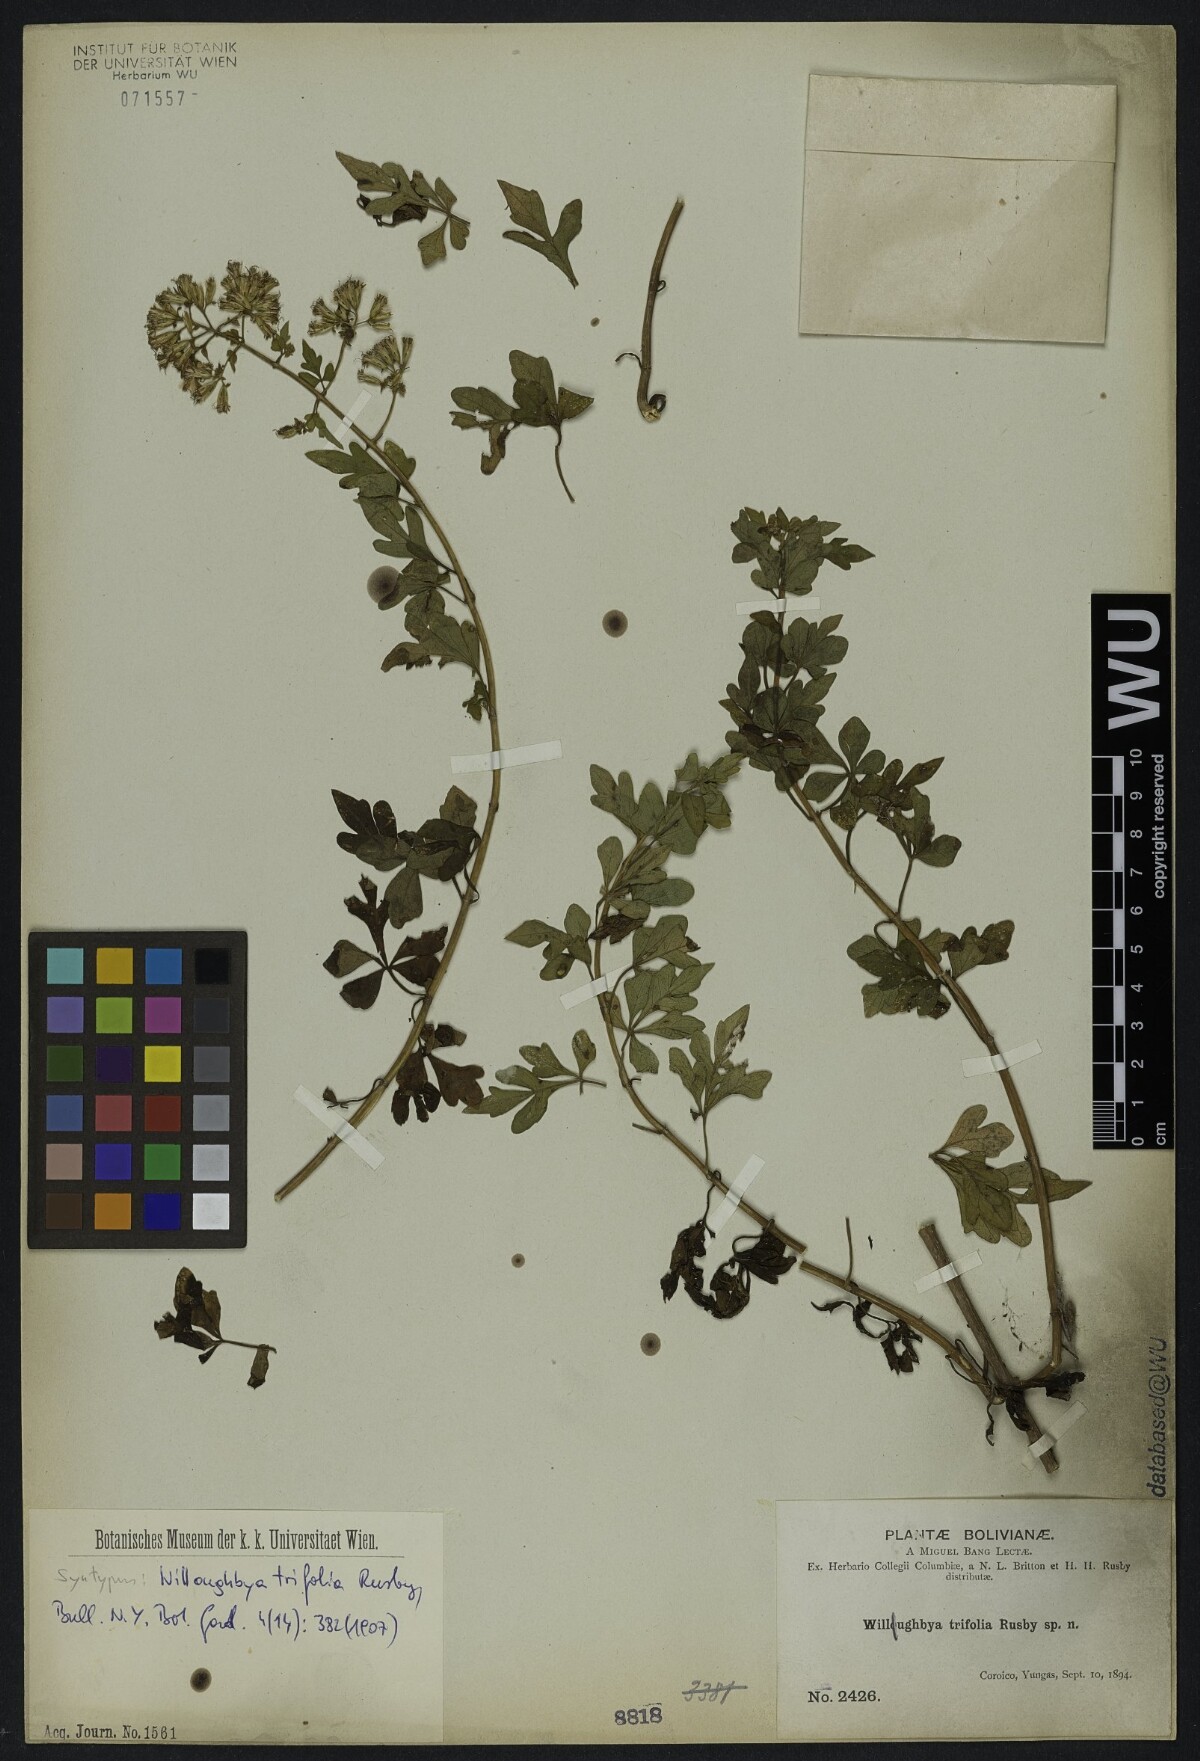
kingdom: Plantae
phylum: Tracheophyta
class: Magnoliopsida
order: Asterales
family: Asteraceae
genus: Mikania
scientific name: Mikania ternata
